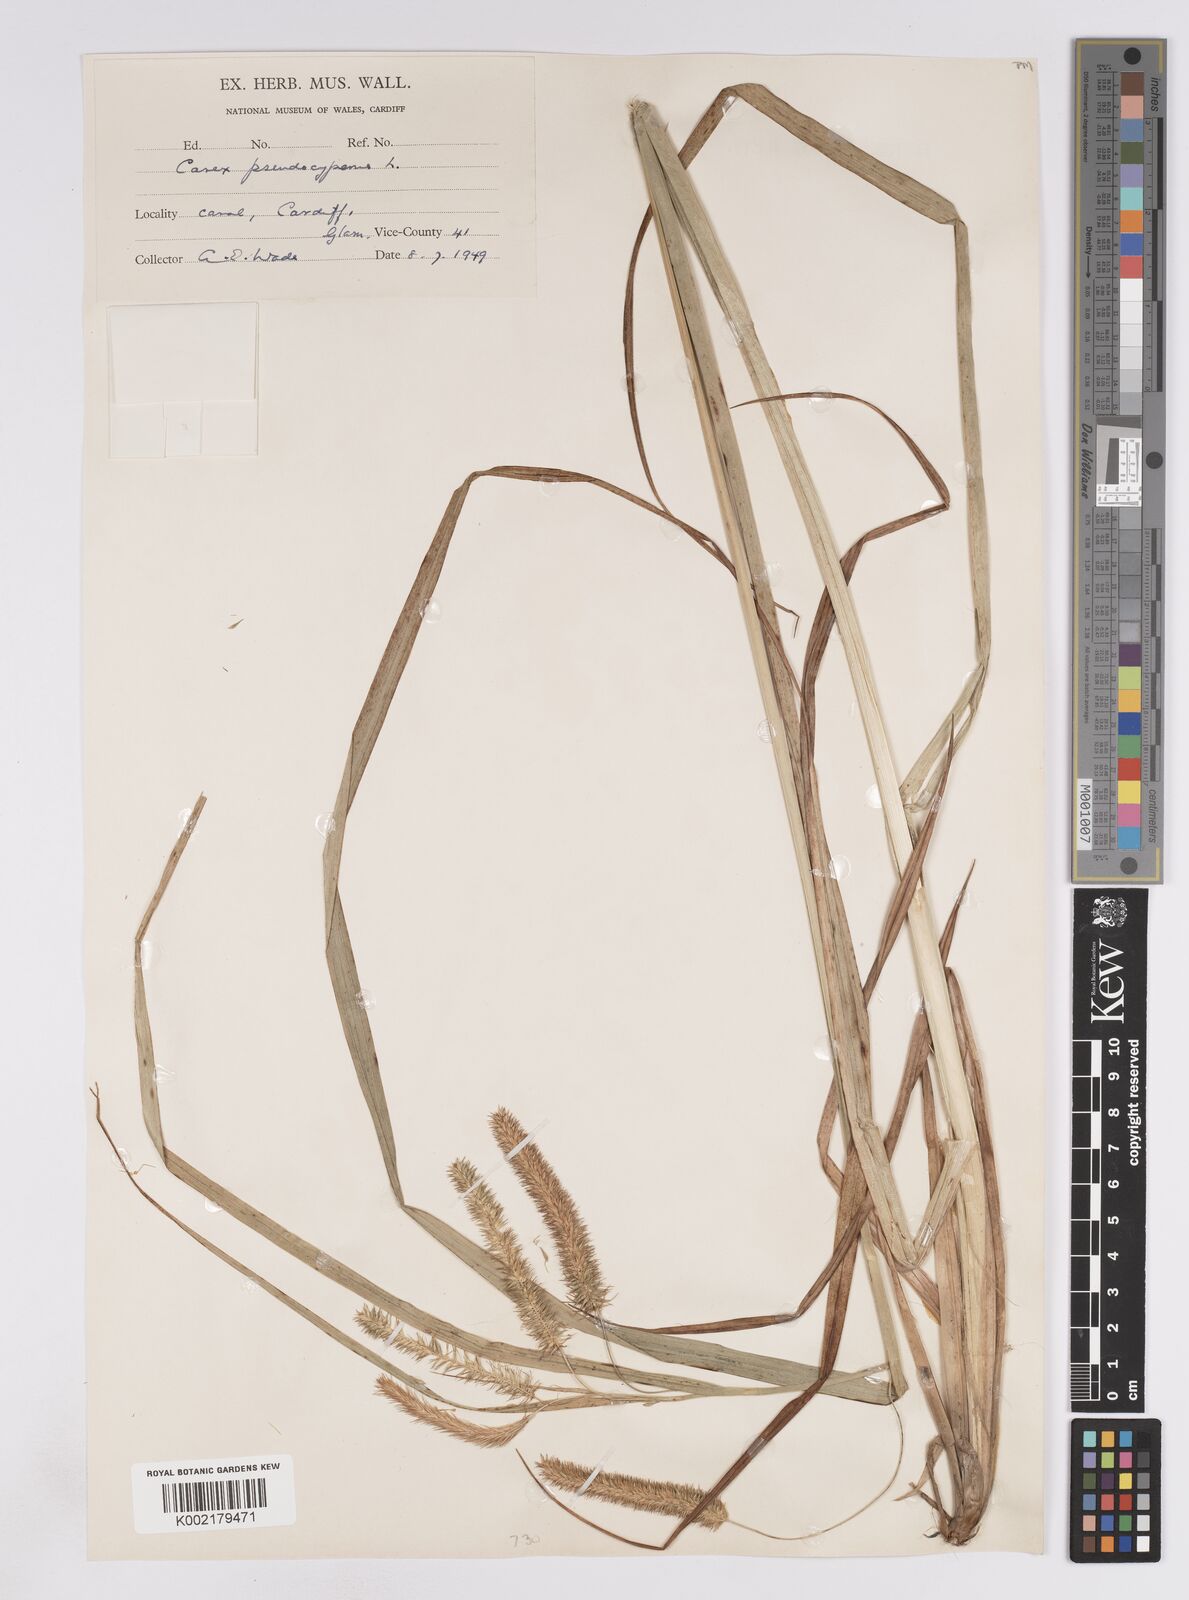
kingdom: Plantae
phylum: Tracheophyta
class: Liliopsida
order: Poales
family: Cyperaceae
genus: Carex
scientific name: Carex pseudocyperus
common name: Cyperus sedge
